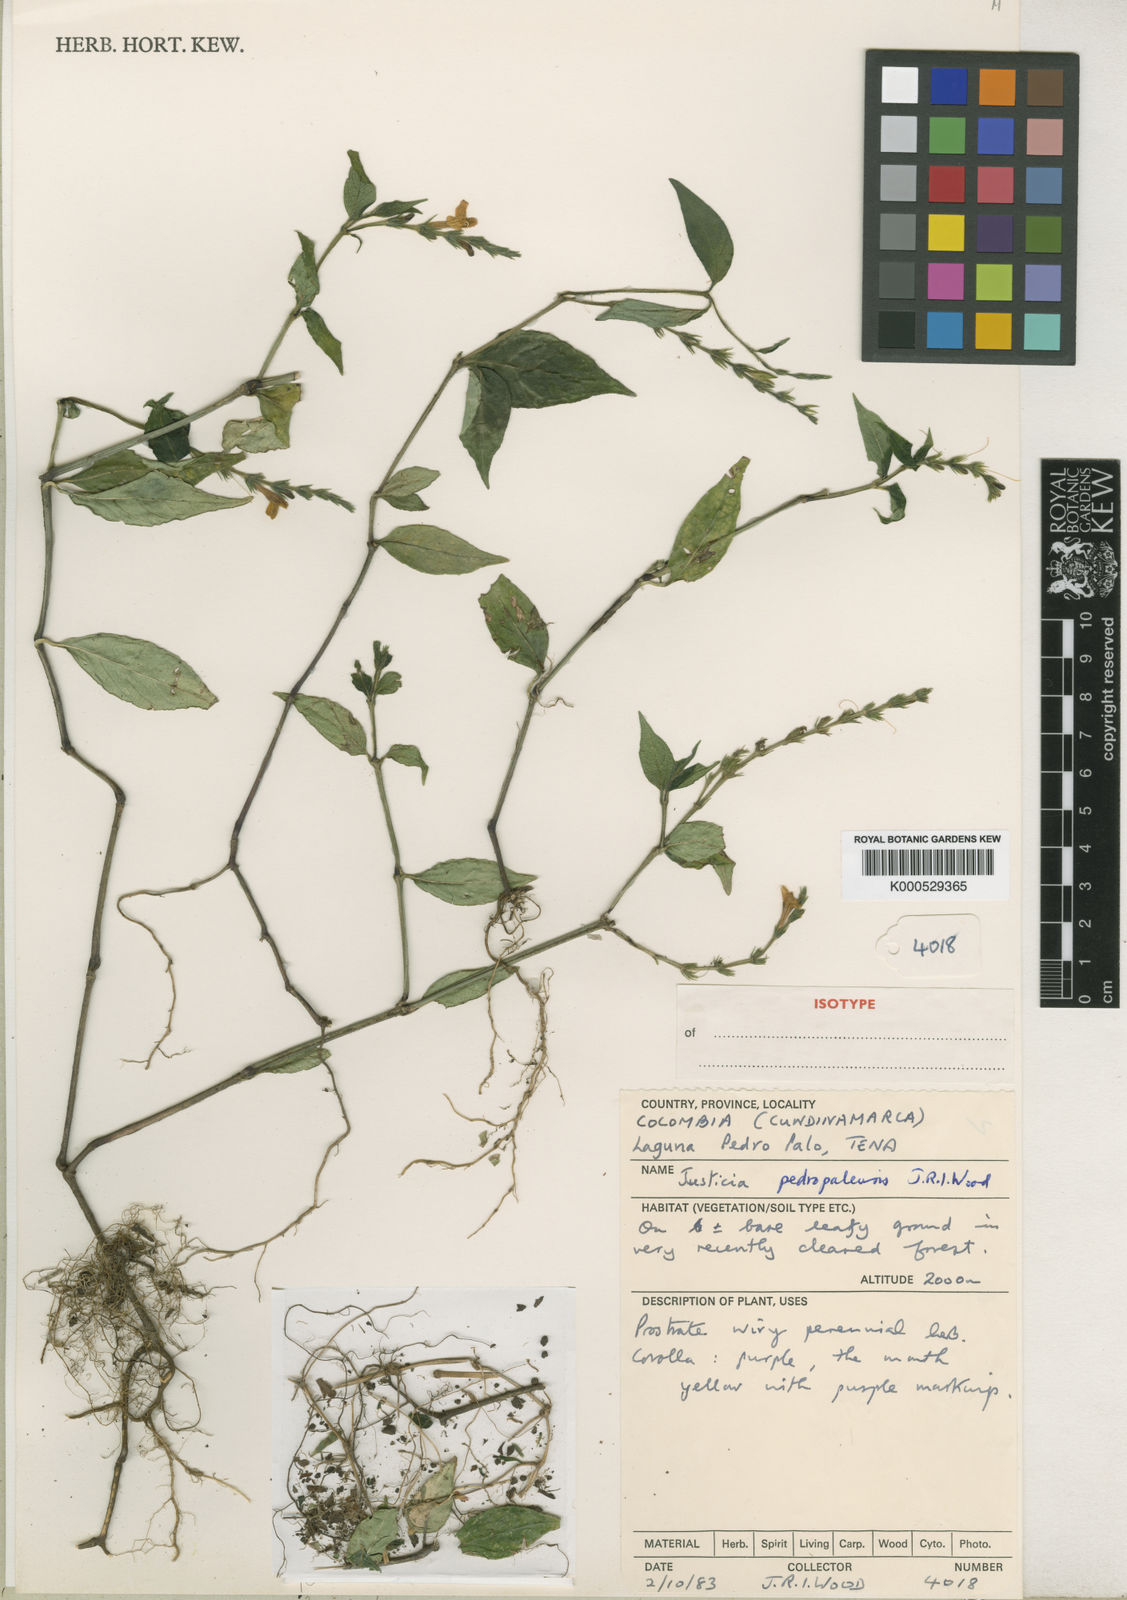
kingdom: Plantae
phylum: Tracheophyta
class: Magnoliopsida
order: Lamiales
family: Acanthaceae
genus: Justicia
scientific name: Justicia pedropalensis
